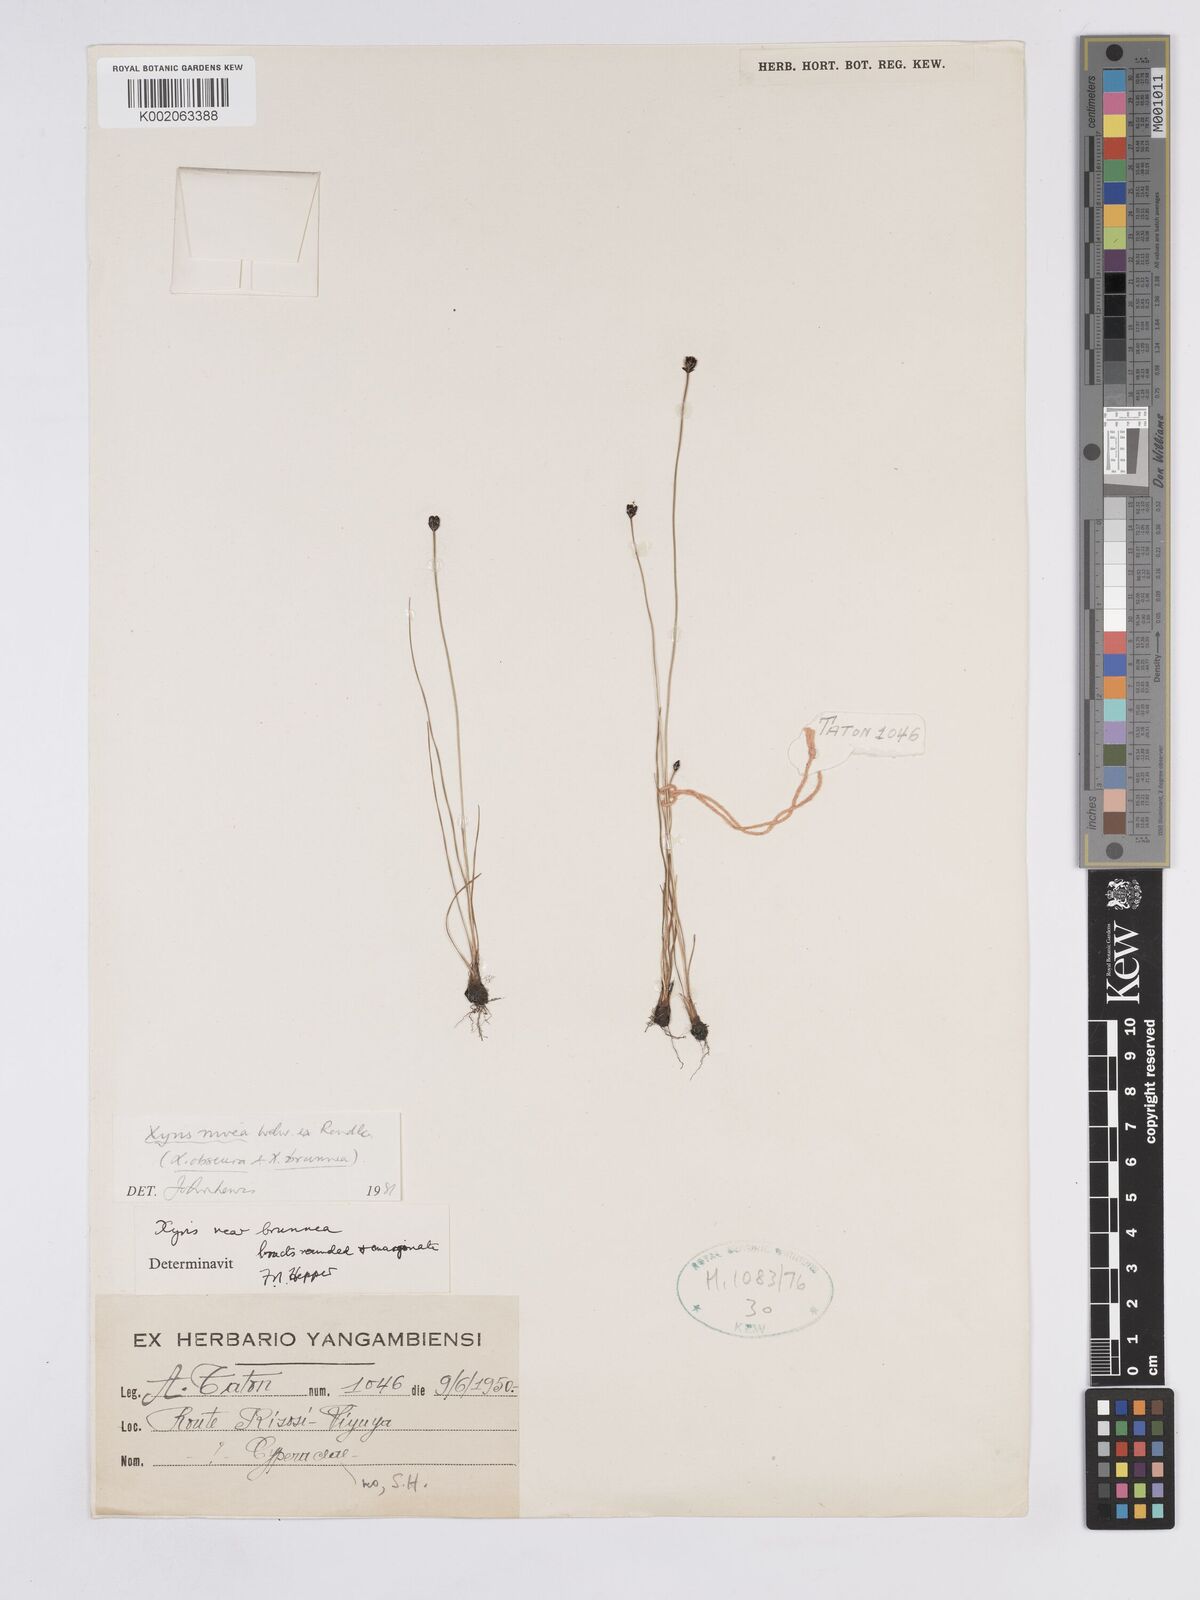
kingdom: Plantae
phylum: Tracheophyta
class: Liliopsida
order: Poales
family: Xyridaceae
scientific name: Xyridaceae
